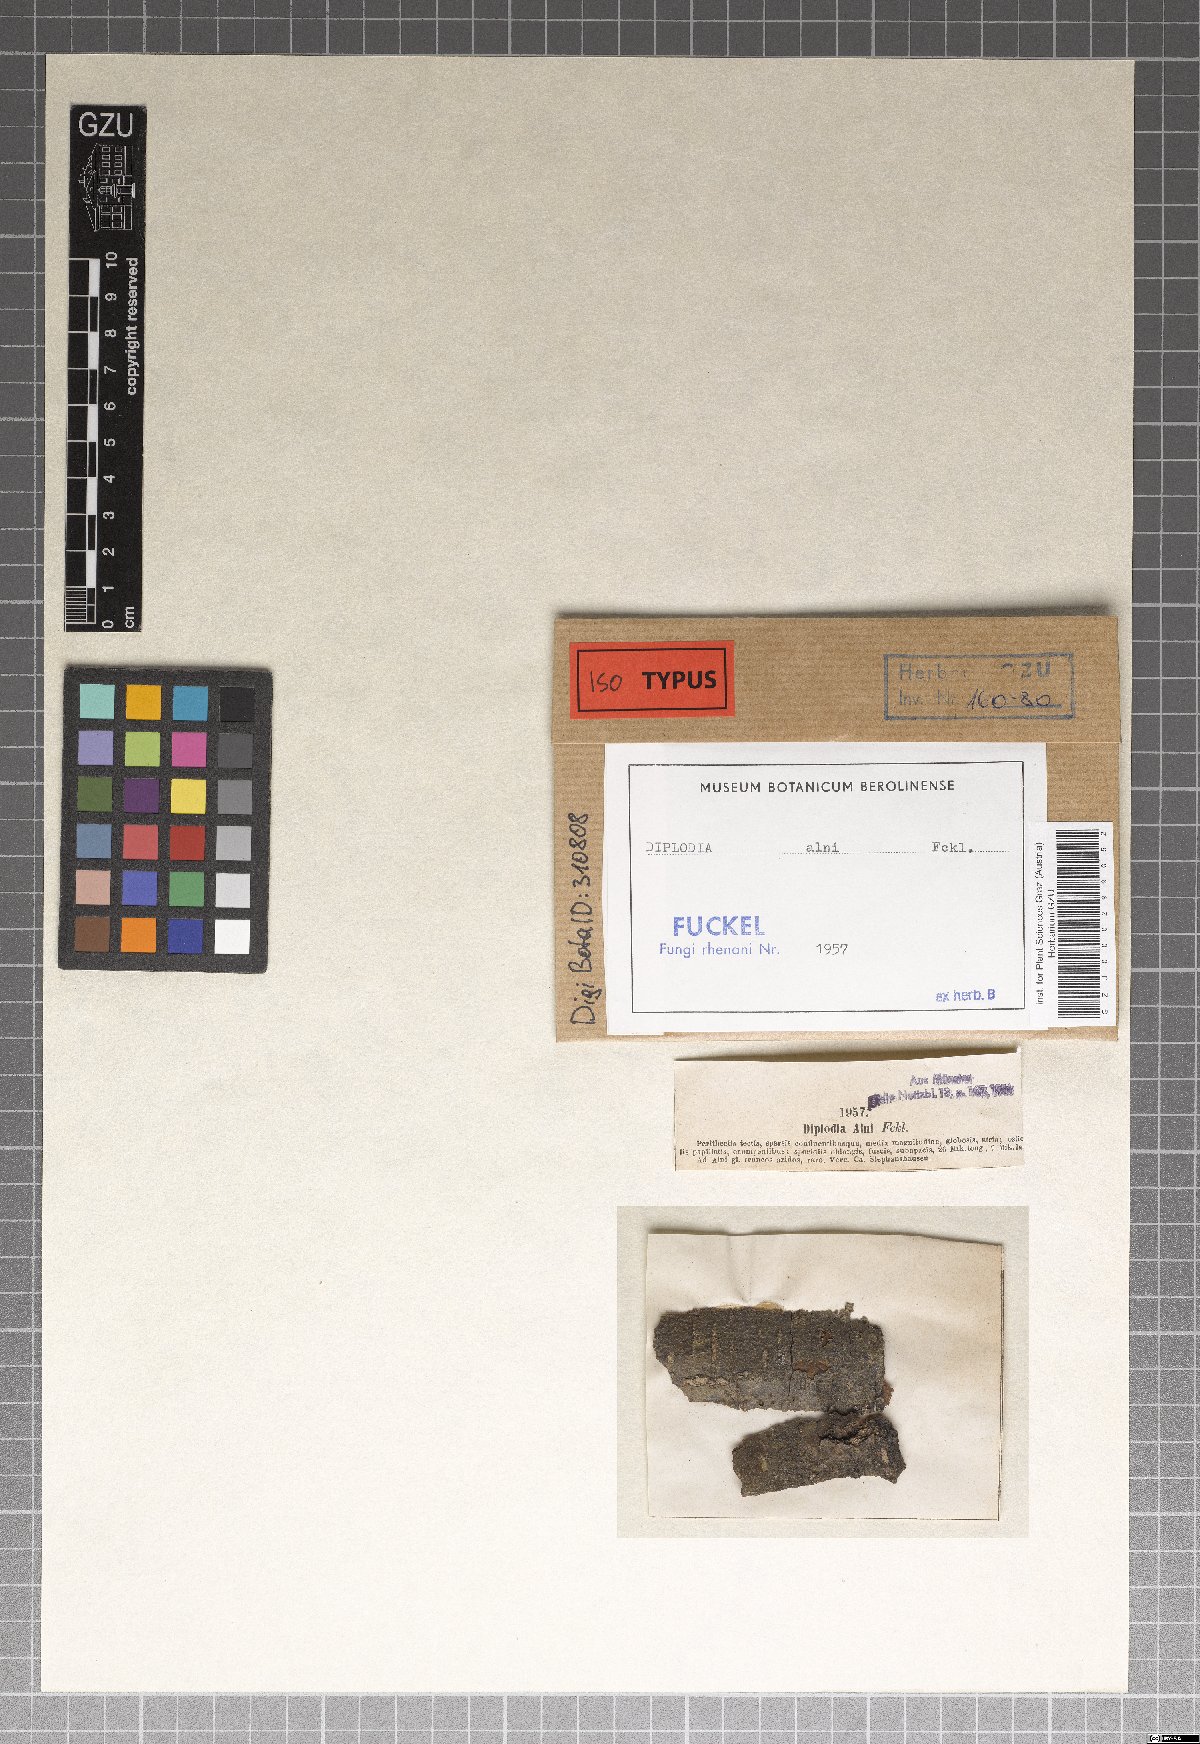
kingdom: Fungi
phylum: Ascomycota
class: Dothideomycetes
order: Botryosphaeriales
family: Botryosphaeriaceae
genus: Diplodia
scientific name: Diplodia alni
